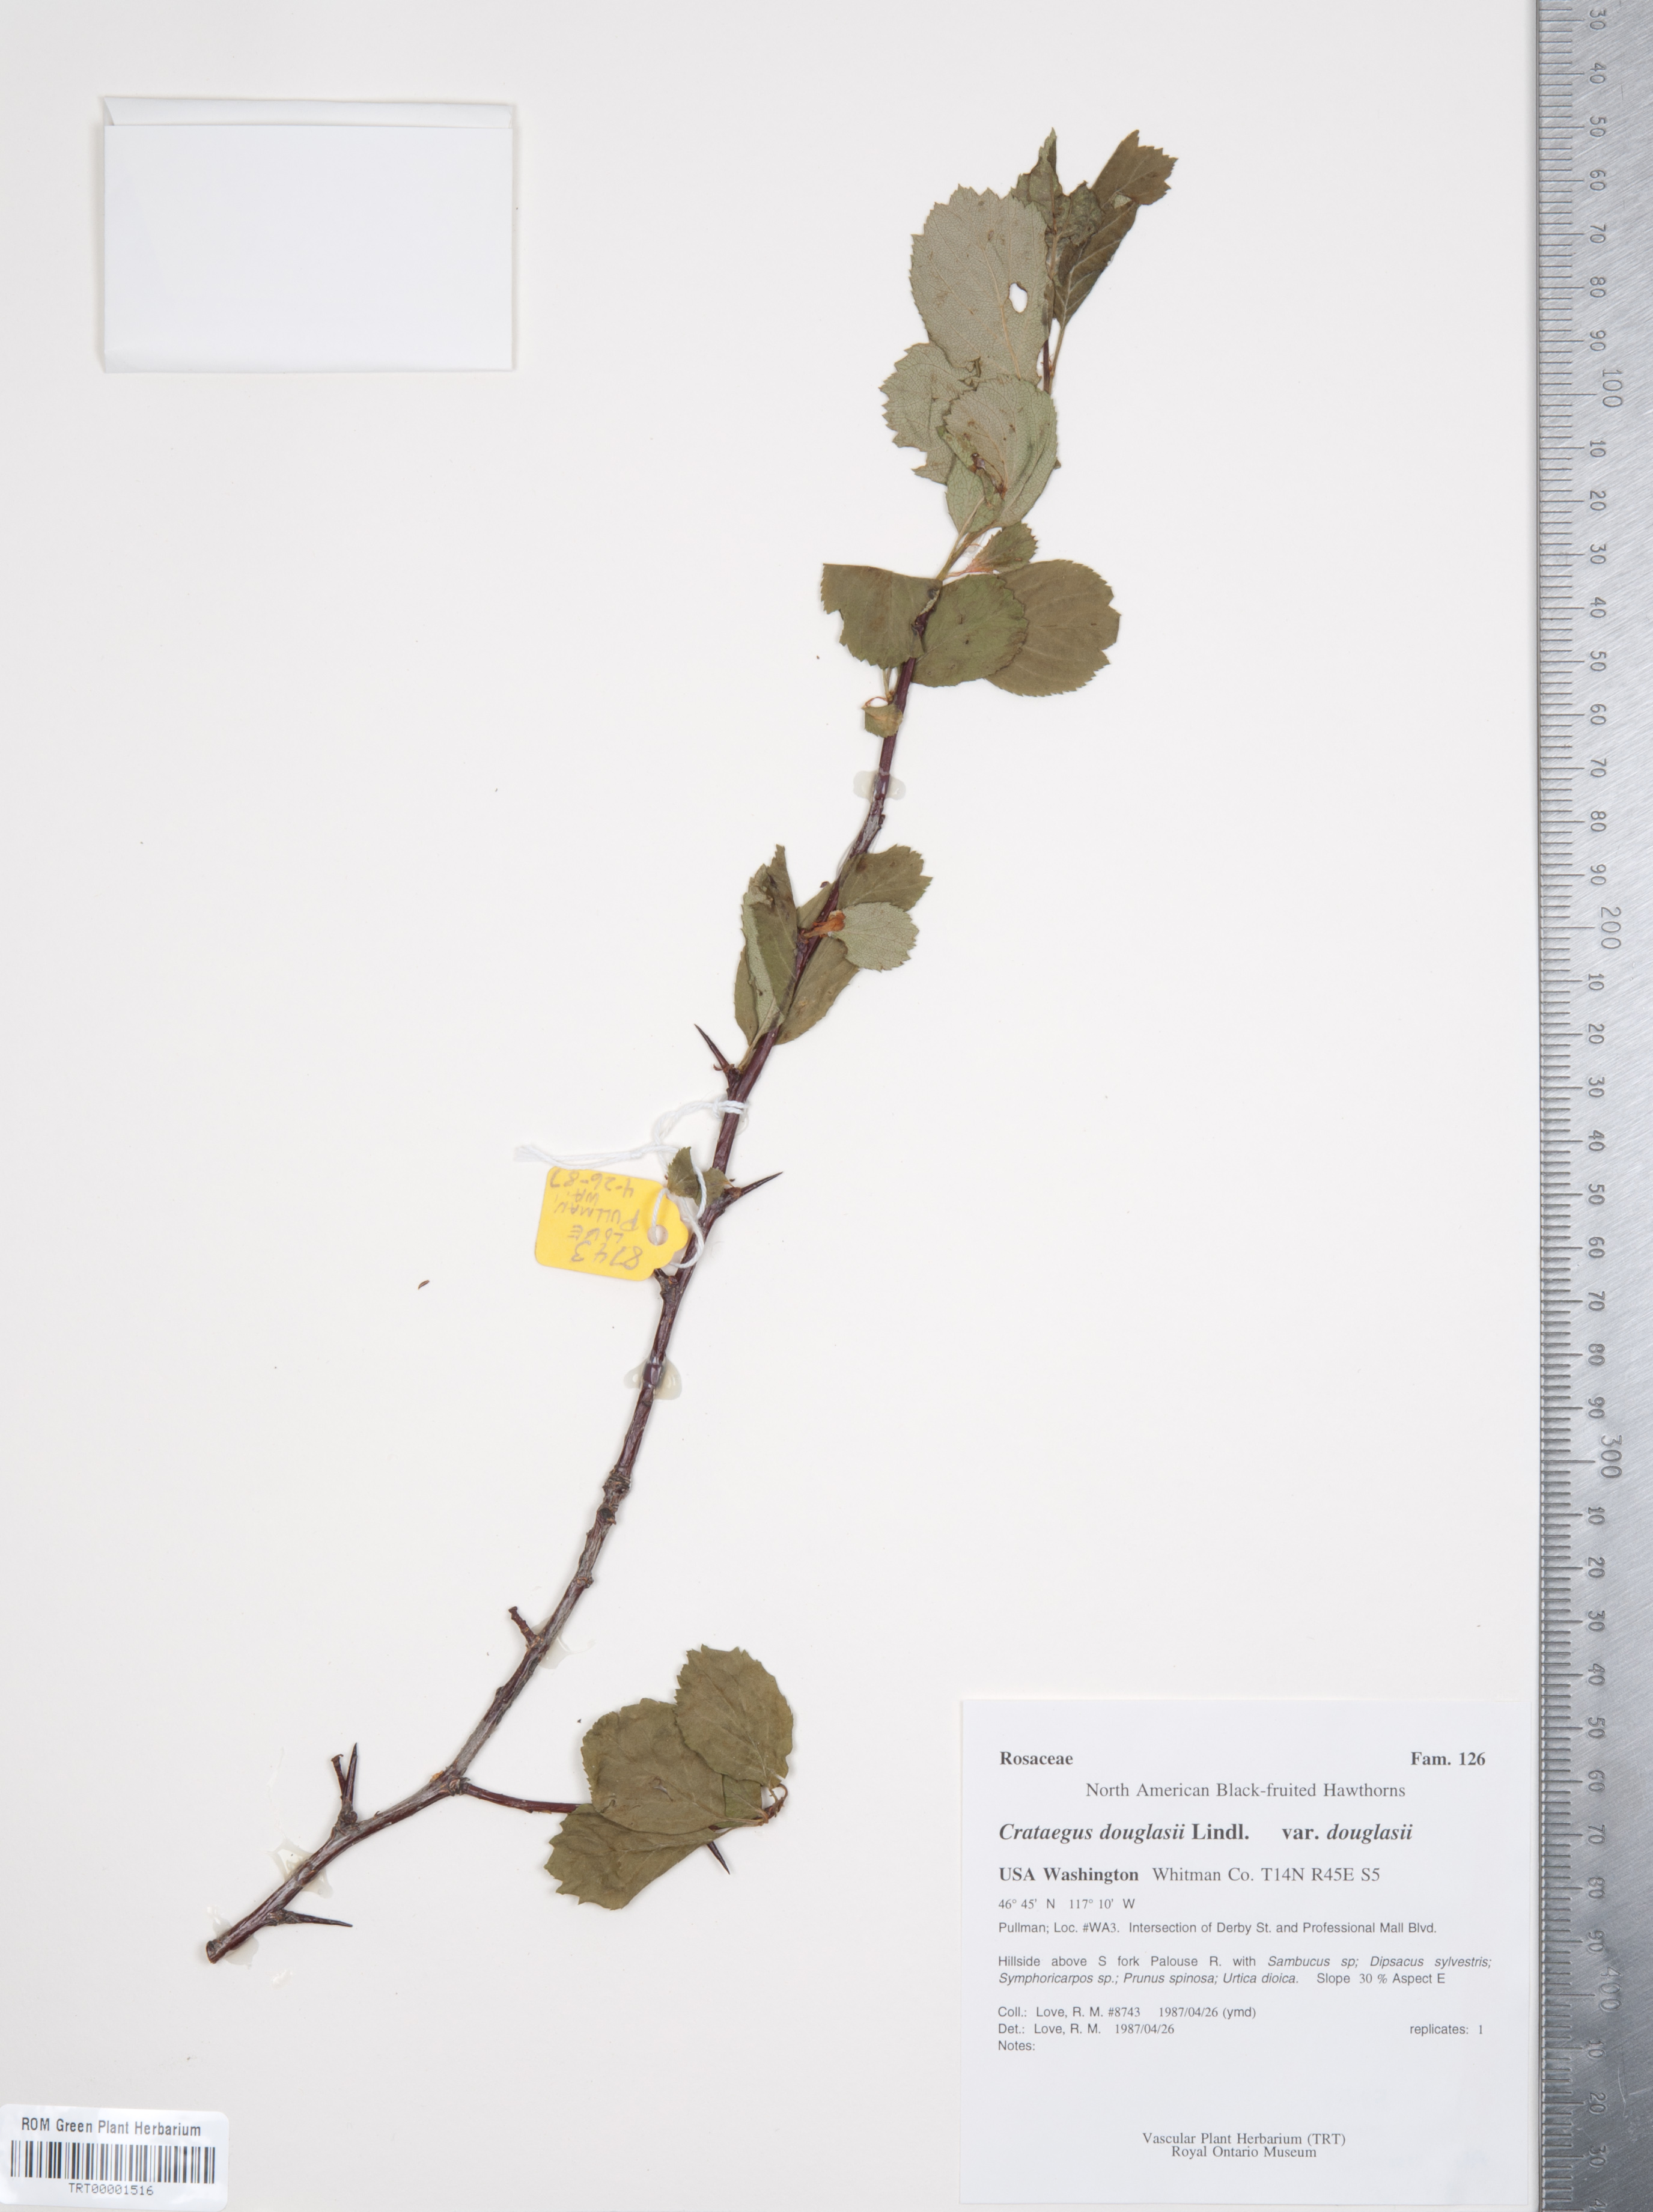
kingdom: Plantae
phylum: Tracheophyta
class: Magnoliopsida
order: Rosales
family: Rosaceae
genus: Crataegus
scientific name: Crataegus douglasii
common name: Black hawthorn
